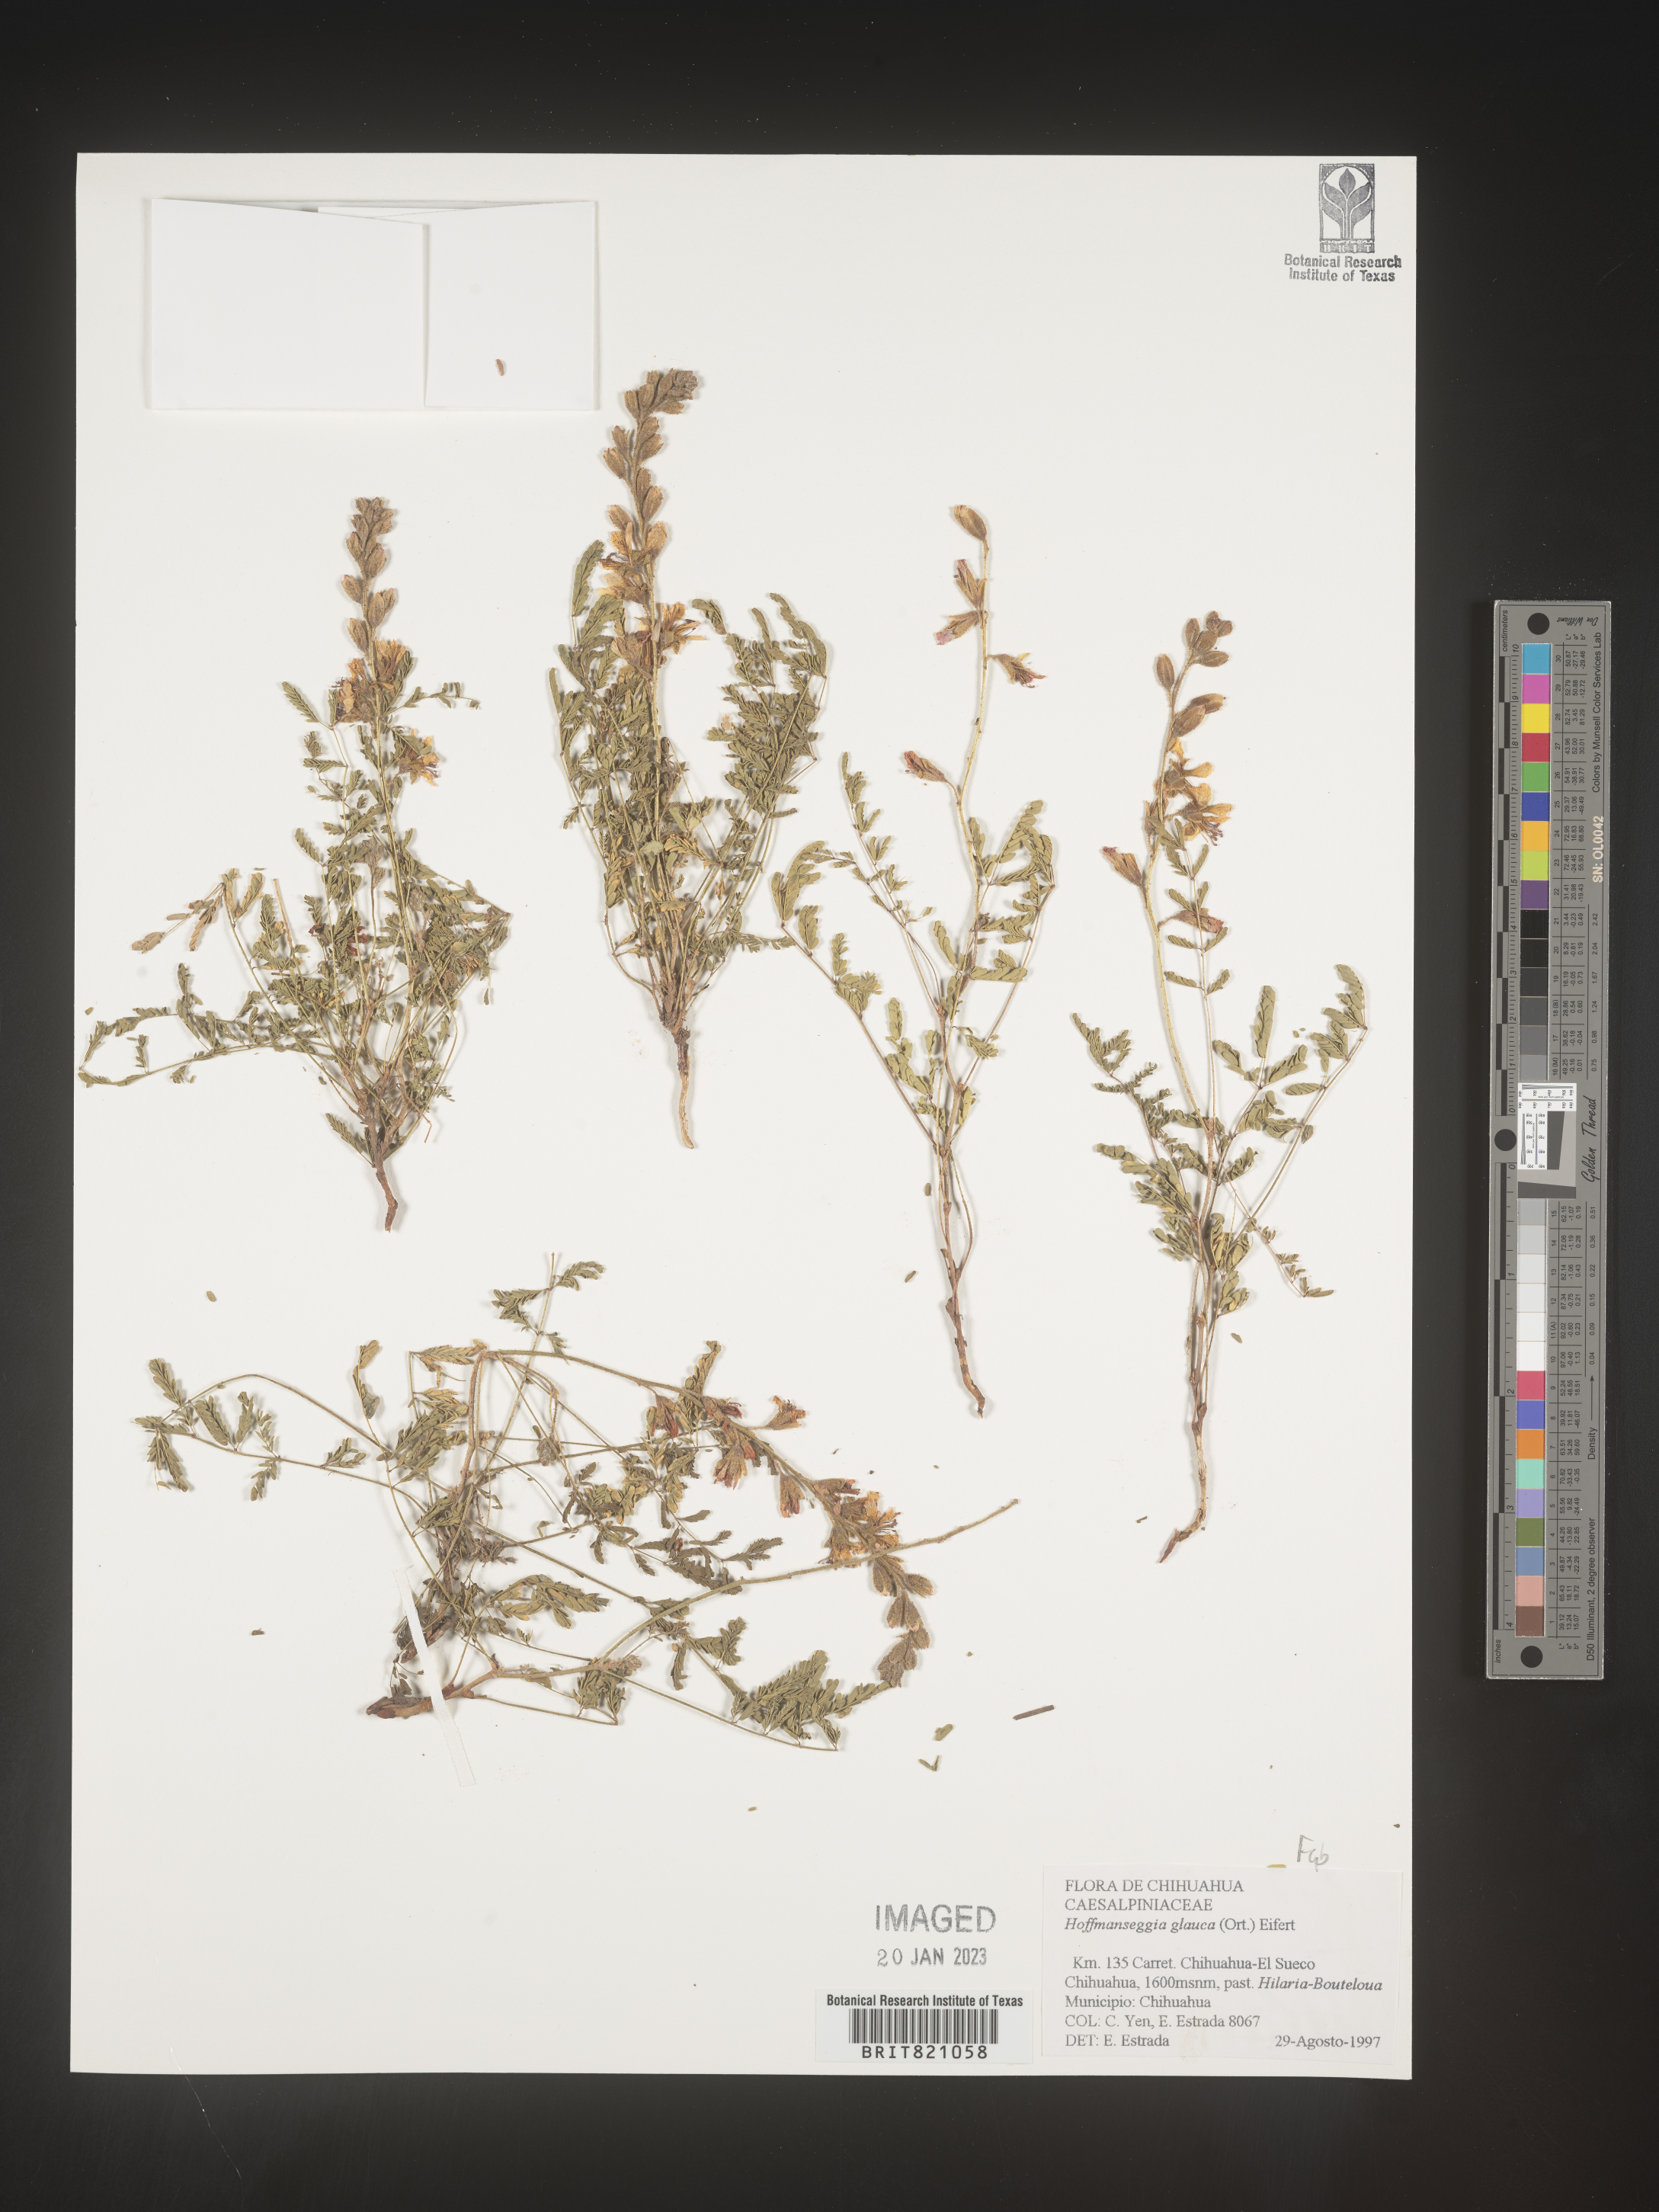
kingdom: Plantae
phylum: Tracheophyta
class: Magnoliopsida
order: Fabales
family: Fabaceae
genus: Hoffmannseggia
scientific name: Hoffmannseggia
